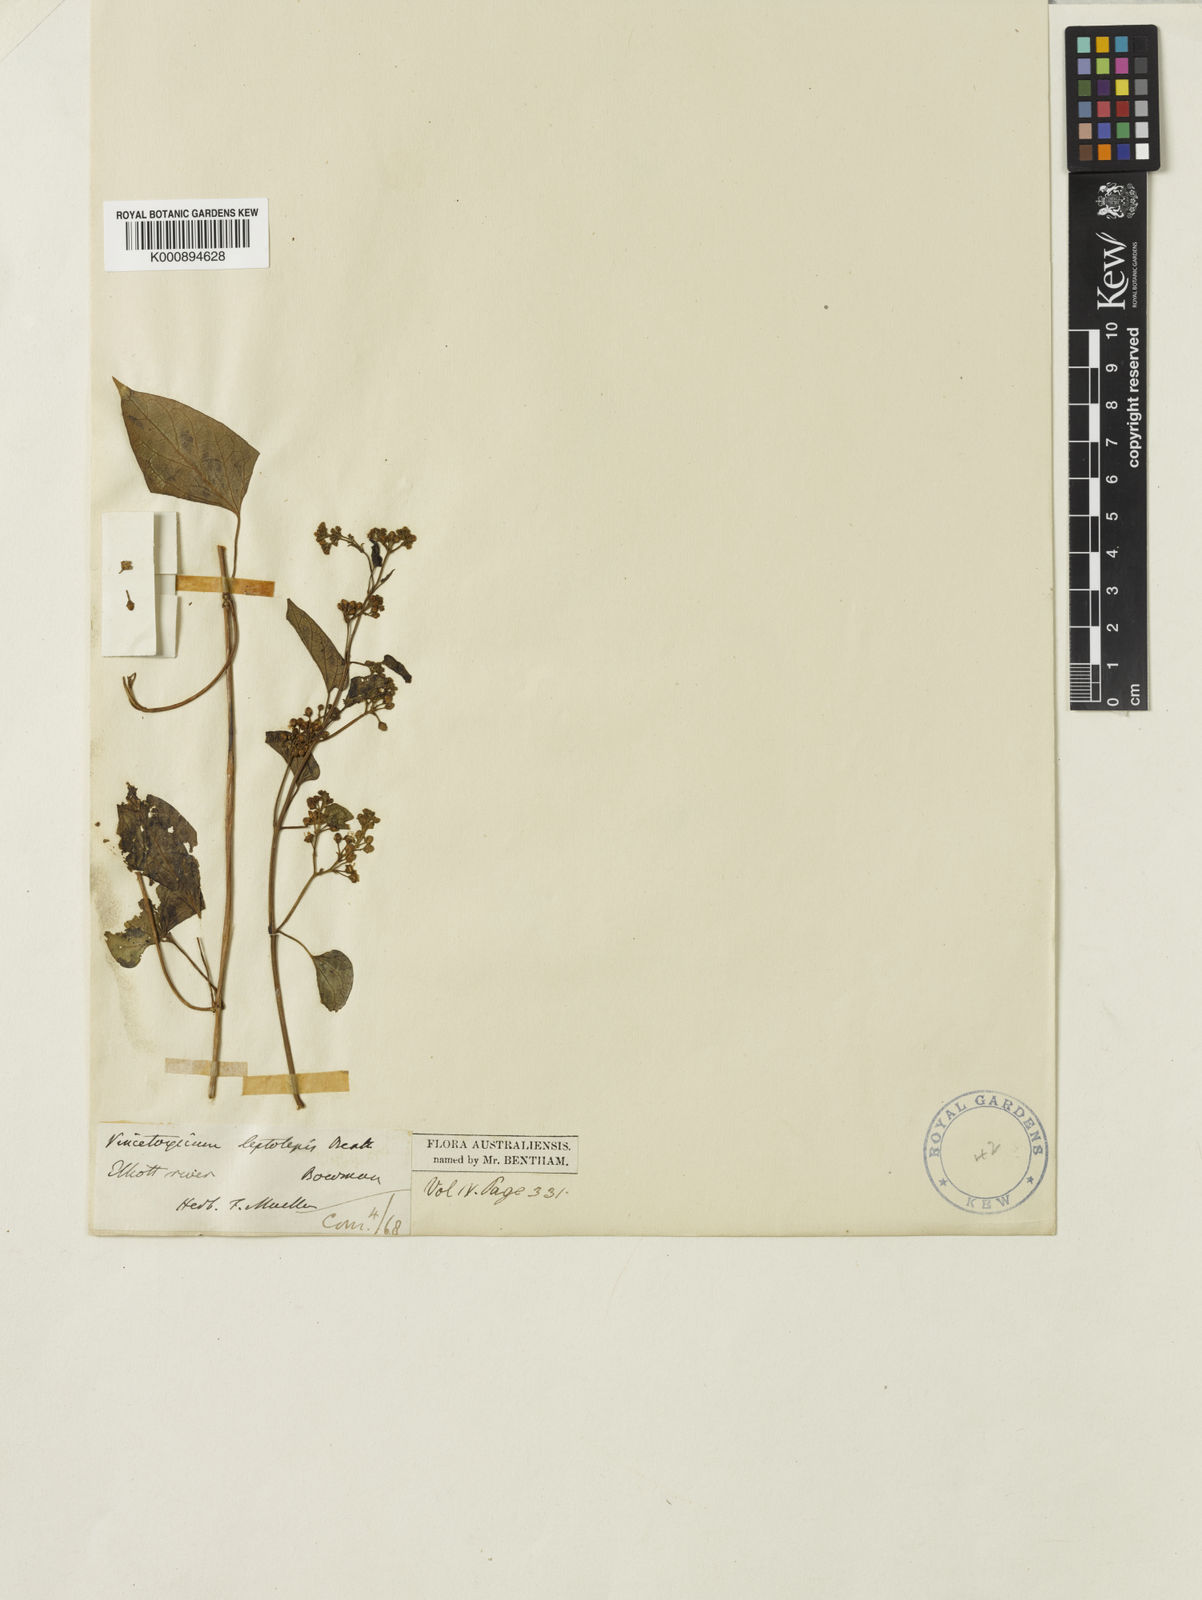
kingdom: Plantae
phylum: Tracheophyta
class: Magnoliopsida
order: Gentianales
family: Apocynaceae
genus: Vincetoxicum
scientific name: Vincetoxicum leptolepis
